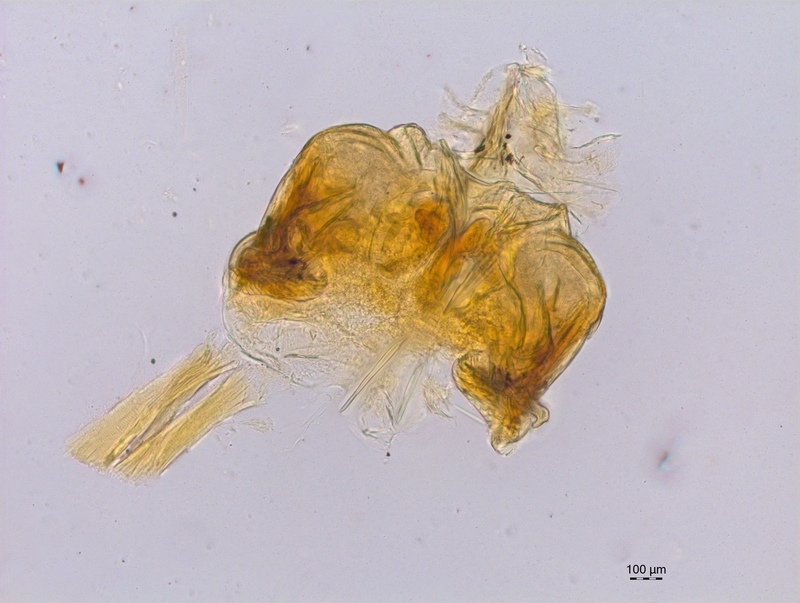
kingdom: Animalia
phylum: Arthropoda
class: Diplopoda
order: Chordeumatida
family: Craspedosomatidae
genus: Craspedosoma
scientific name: Craspedosoma furculigerum
